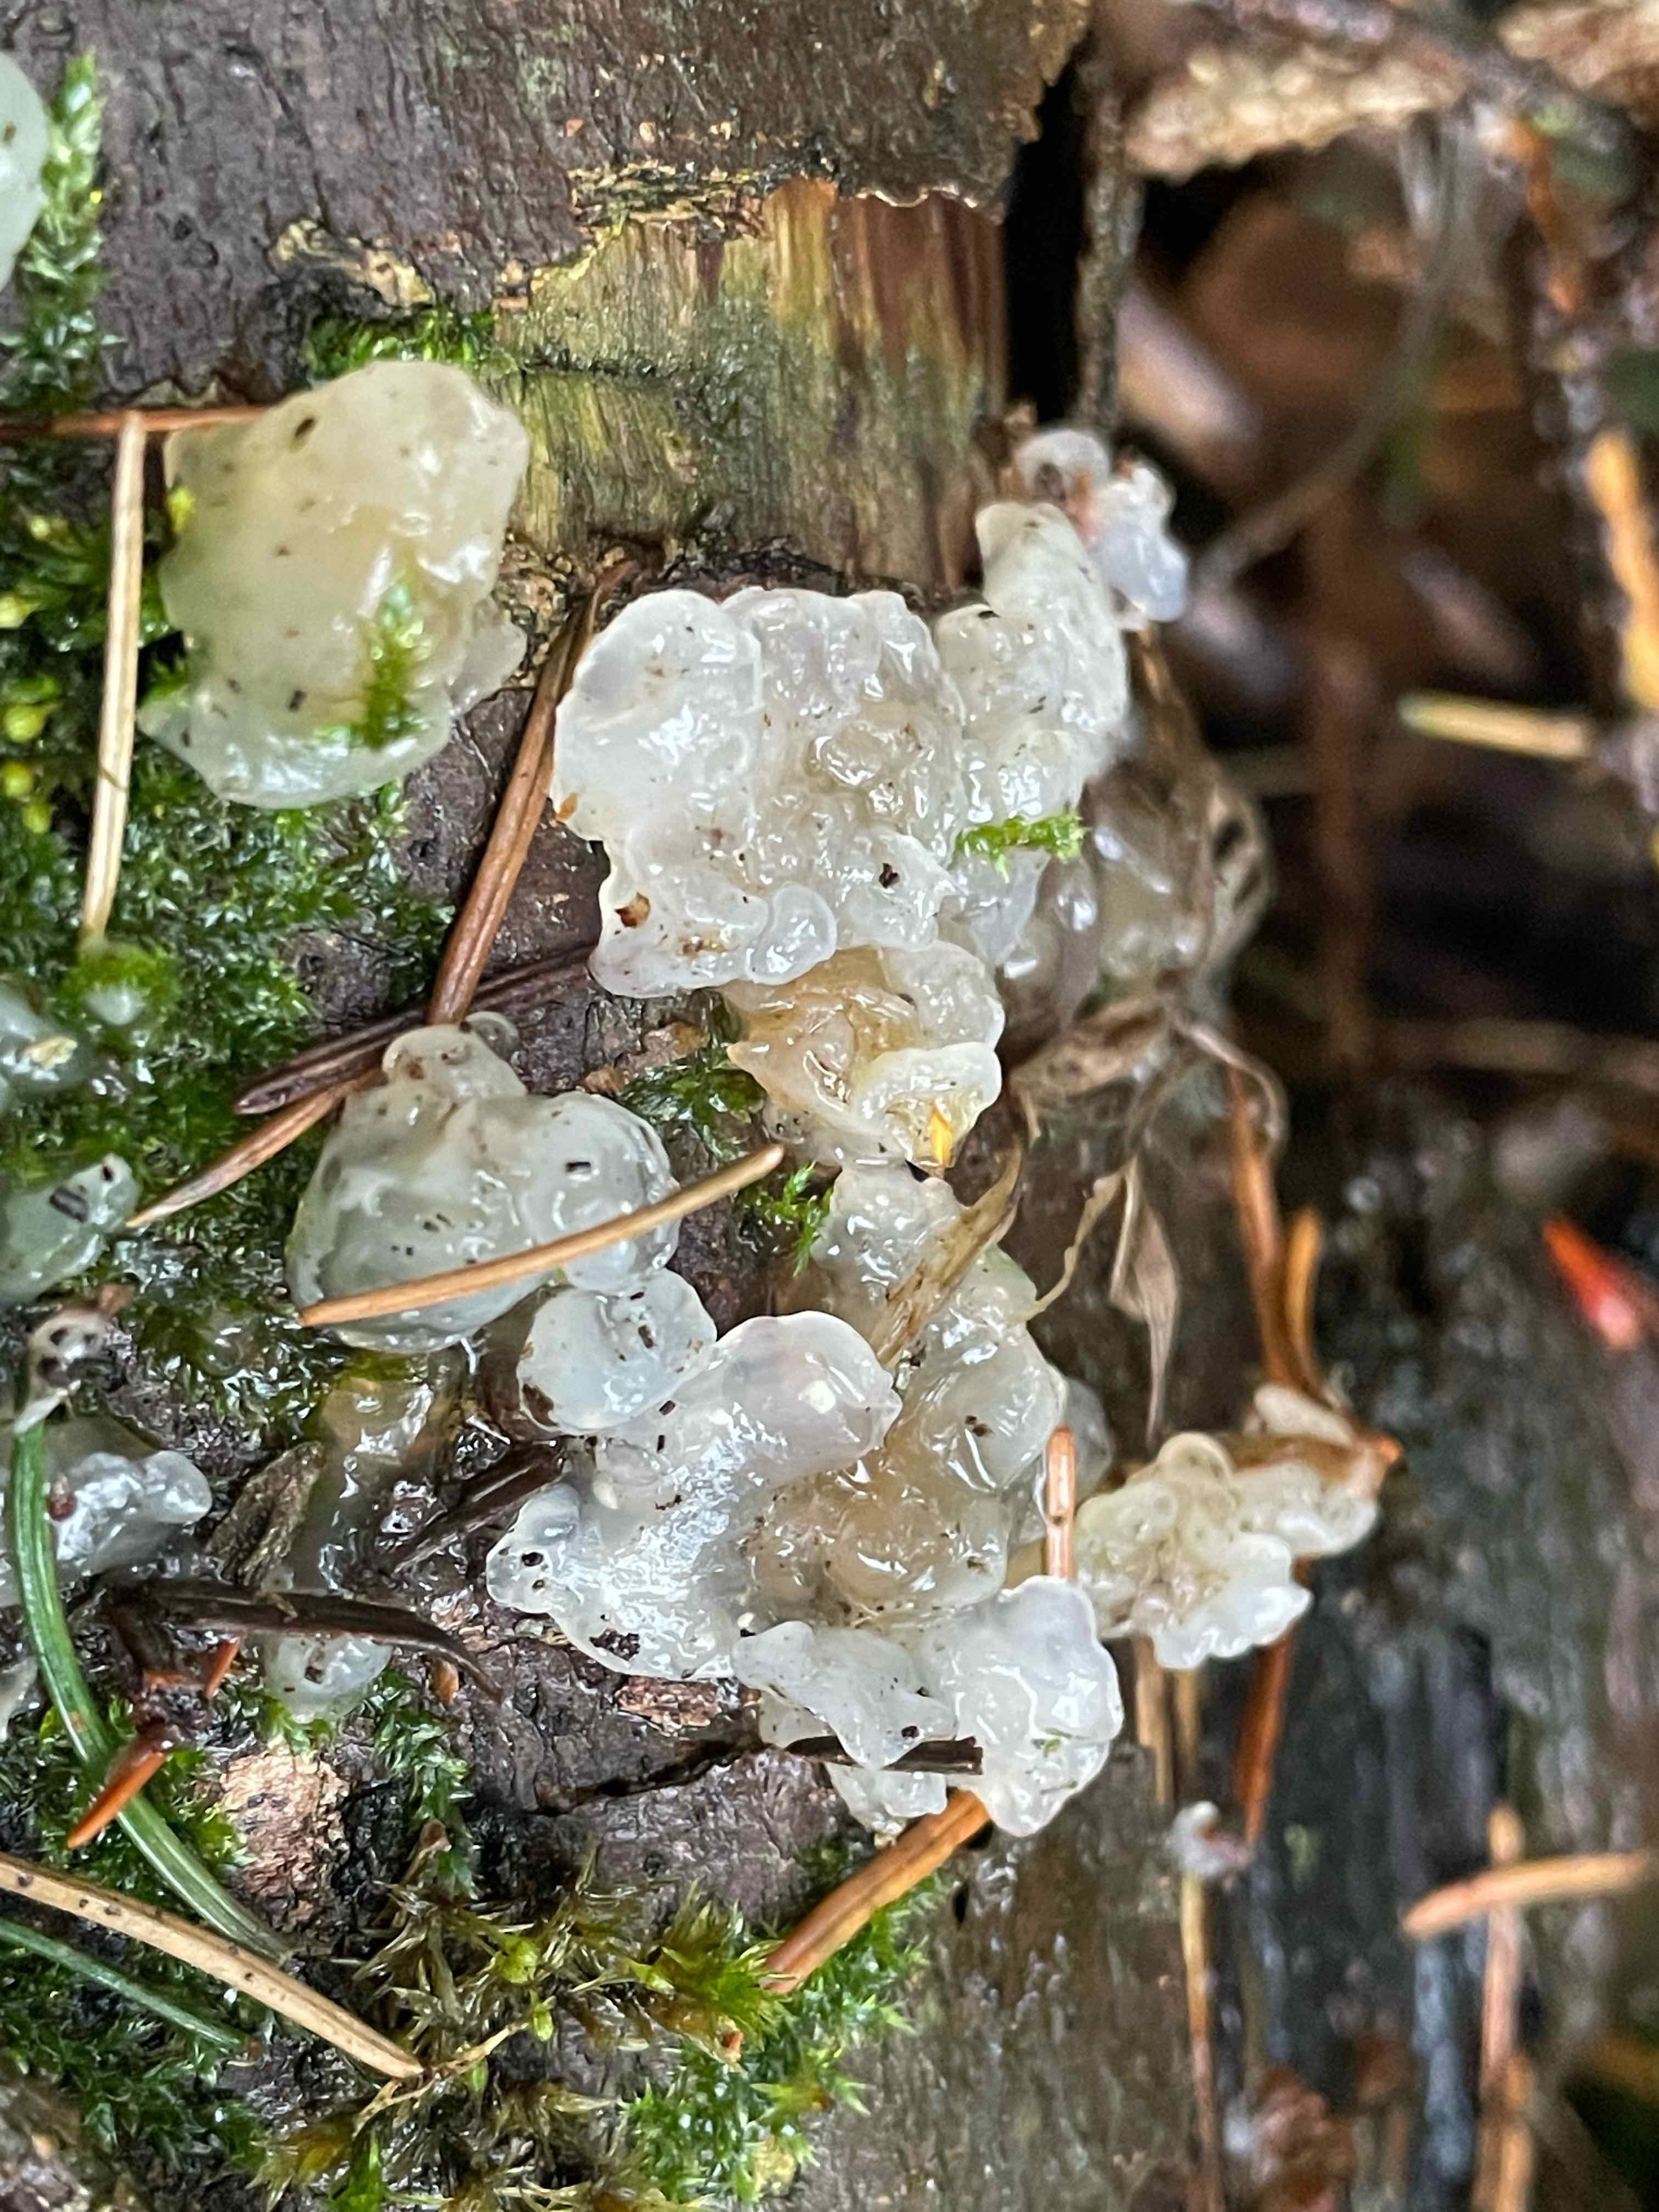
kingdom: Fungi
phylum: Basidiomycota
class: Agaricomycetes
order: Auriculariales
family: Hyaloriaceae
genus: Myxarium
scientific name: Myxarium nucleatum
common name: klar bævretop
